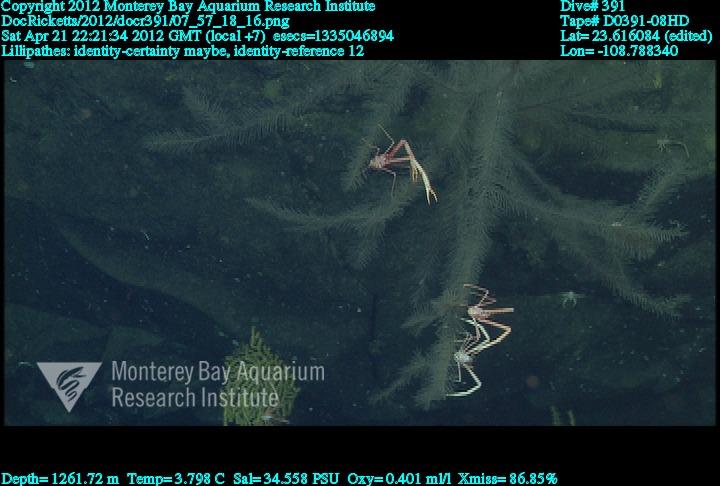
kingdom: Animalia
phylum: Cnidaria
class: Anthozoa
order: Antipatharia
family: Schizopathidae
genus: Lillipathes
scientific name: Lillipathes
